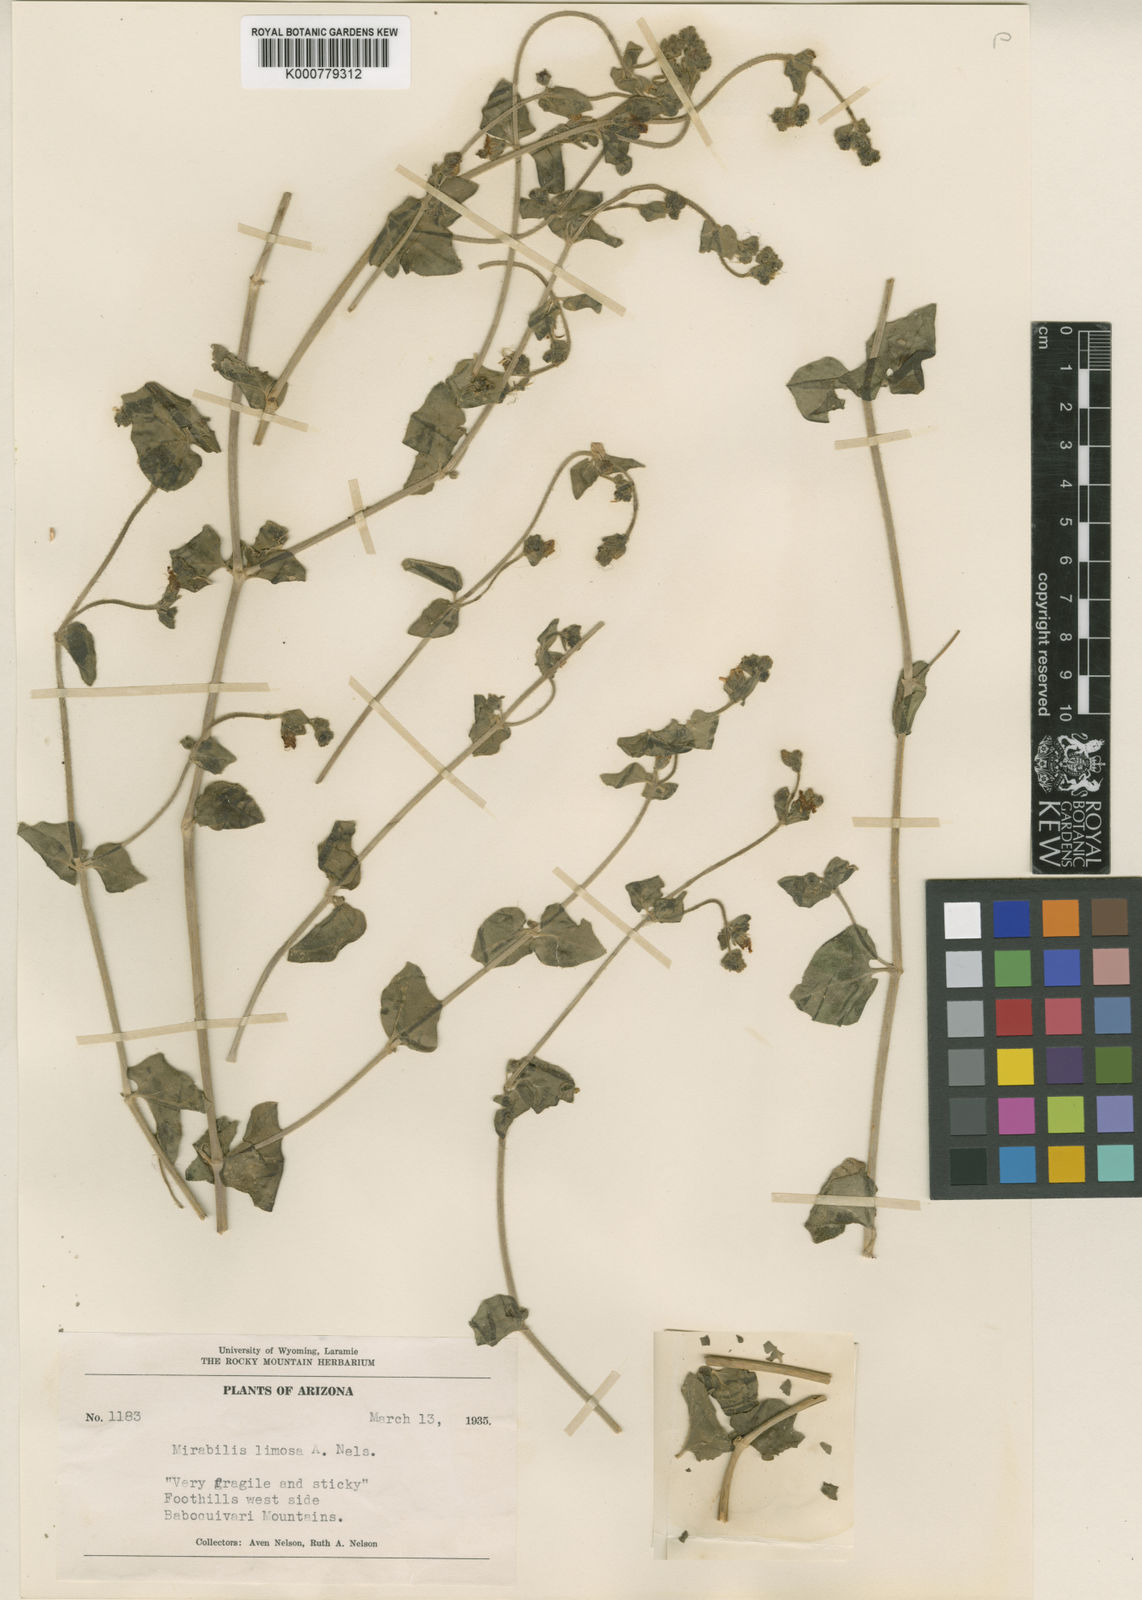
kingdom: Plantae
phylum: Tracheophyta
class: Magnoliopsida
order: Caryophyllales
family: Nyctaginaceae
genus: Mirabilis
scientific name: Mirabilis
